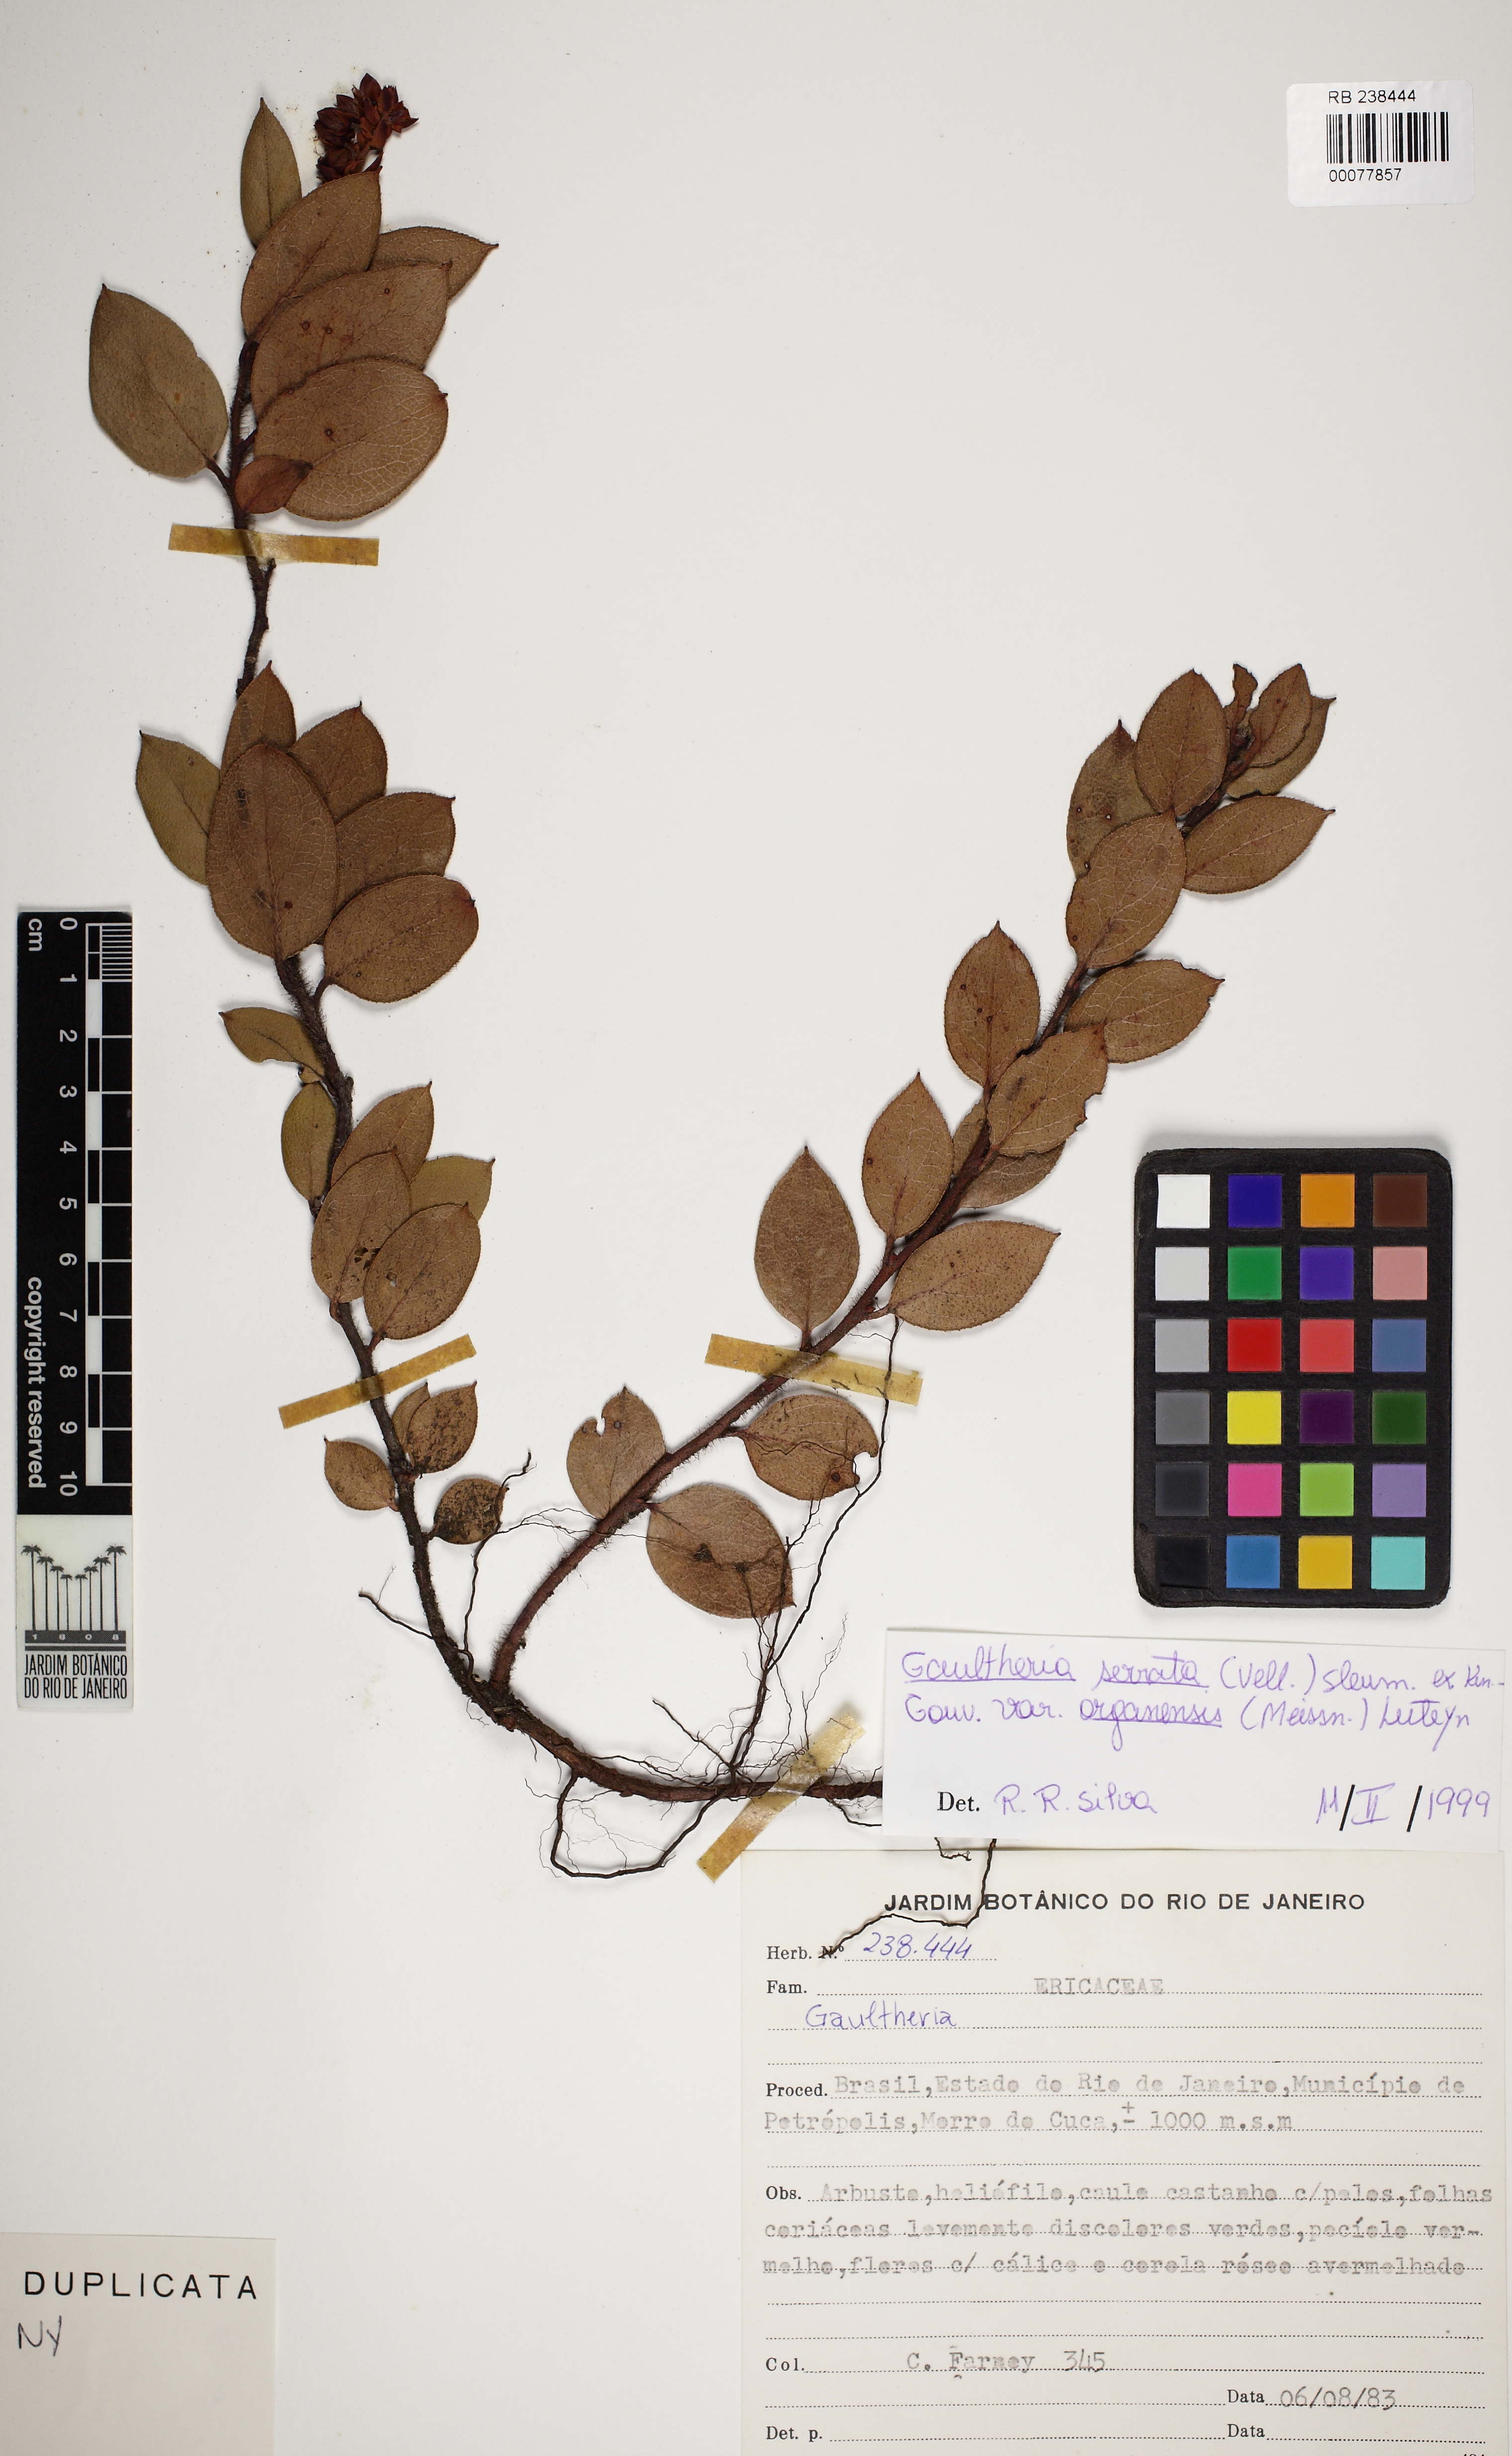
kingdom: Plantae
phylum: Tracheophyta
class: Magnoliopsida
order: Ericales
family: Ericaceae
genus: Gaultheria
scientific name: Gaultheria serrata
